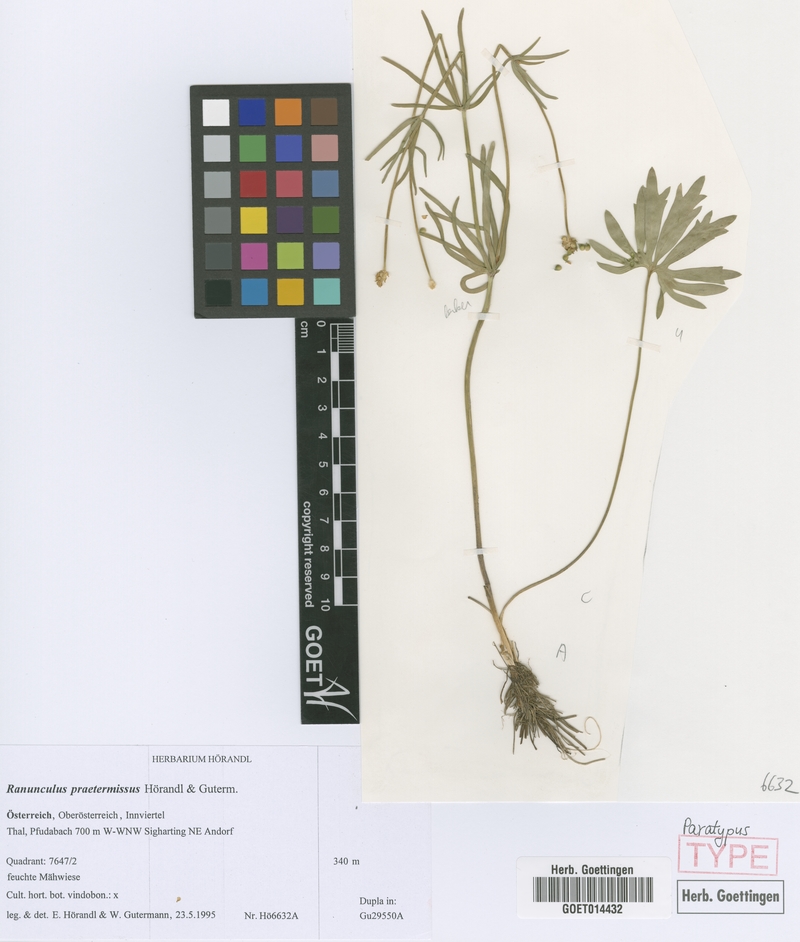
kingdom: Plantae
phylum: Tracheophyta
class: Magnoliopsida
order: Ranunculales
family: Ranunculaceae
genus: Ranunculus
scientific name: Ranunculus praetermissus
